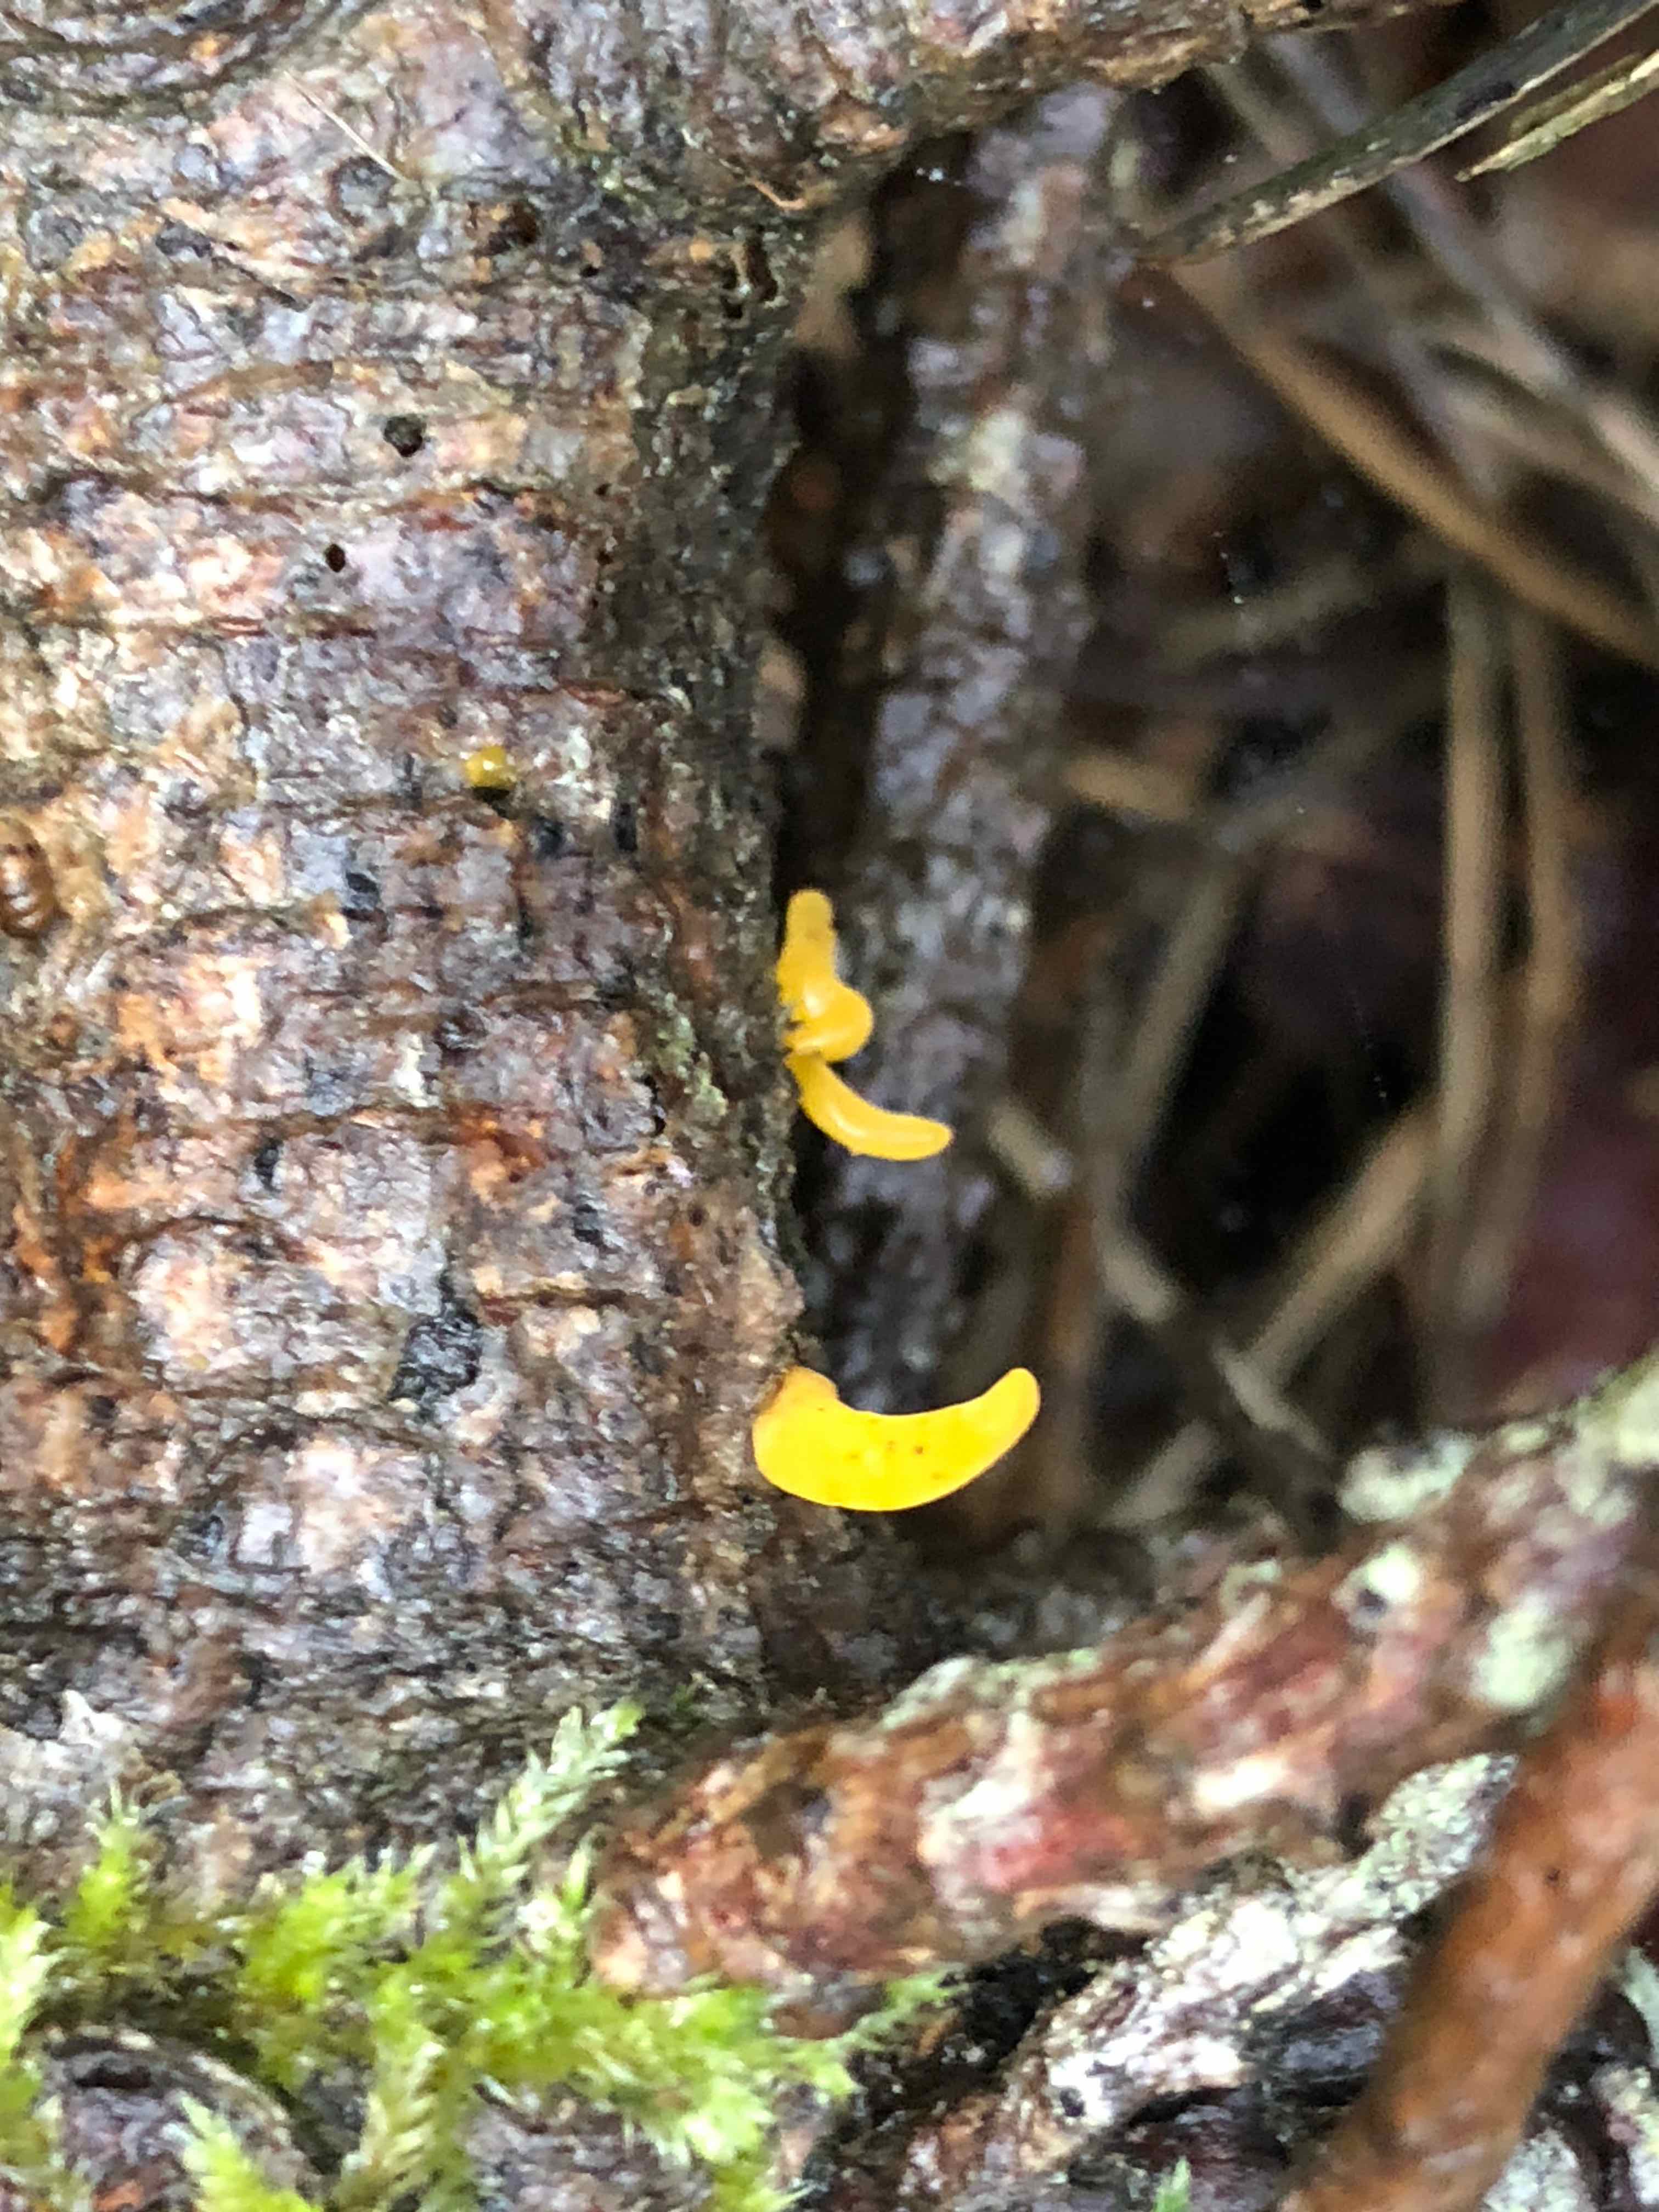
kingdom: Fungi
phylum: Basidiomycota
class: Dacrymycetes
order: Dacrymycetales
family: Dacrymycetaceae
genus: Calocera
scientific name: Calocera furcata
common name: fyrre-guldgaffel
